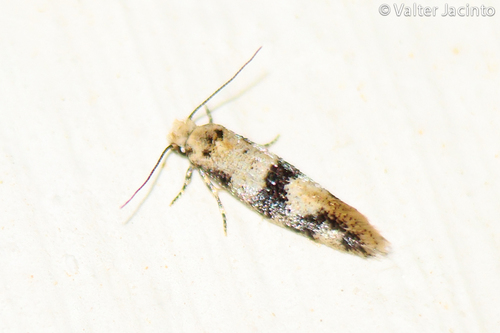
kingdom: Animalia
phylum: Arthropoda
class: Insecta
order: Lepidoptera
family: Meessiidae
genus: Infurcitinea
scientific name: Infurcitinea atrifasciella
